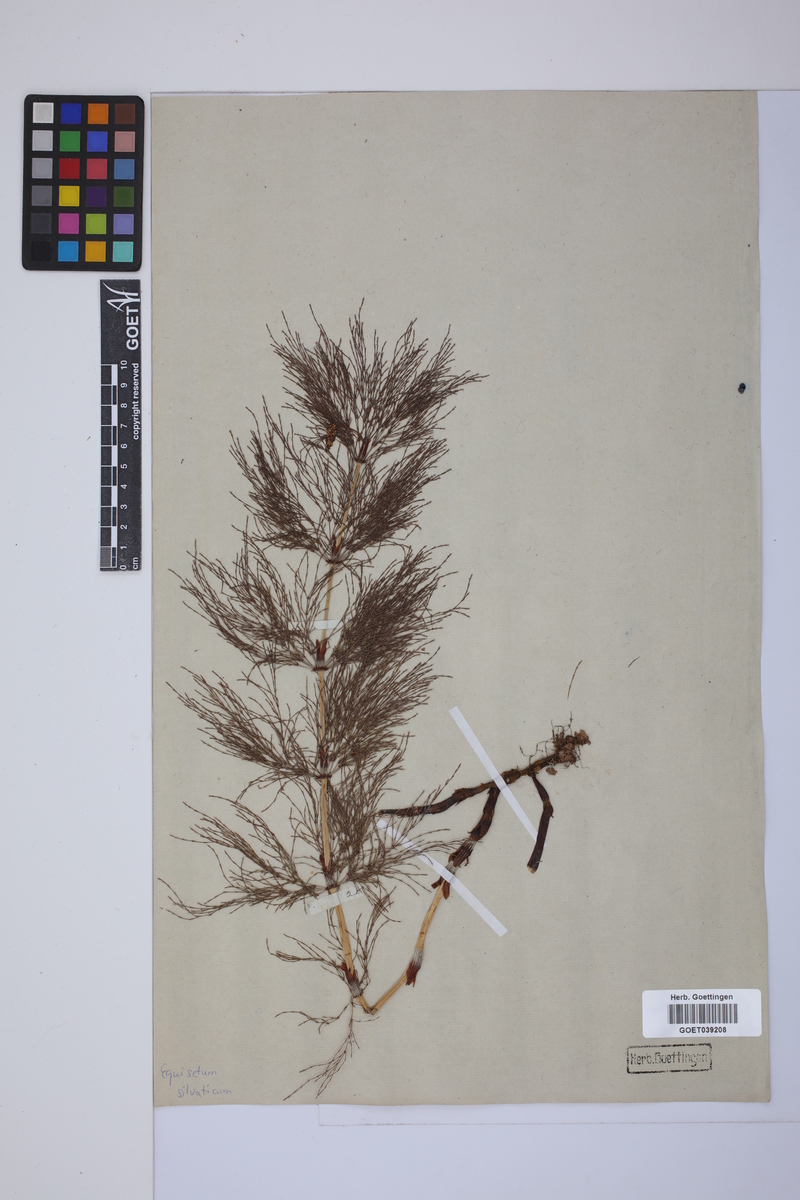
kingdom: Plantae
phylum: Tracheophyta
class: Polypodiopsida
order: Equisetales
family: Equisetaceae
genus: Equisetum
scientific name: Equisetum sylvaticum
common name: Wood horsetail
